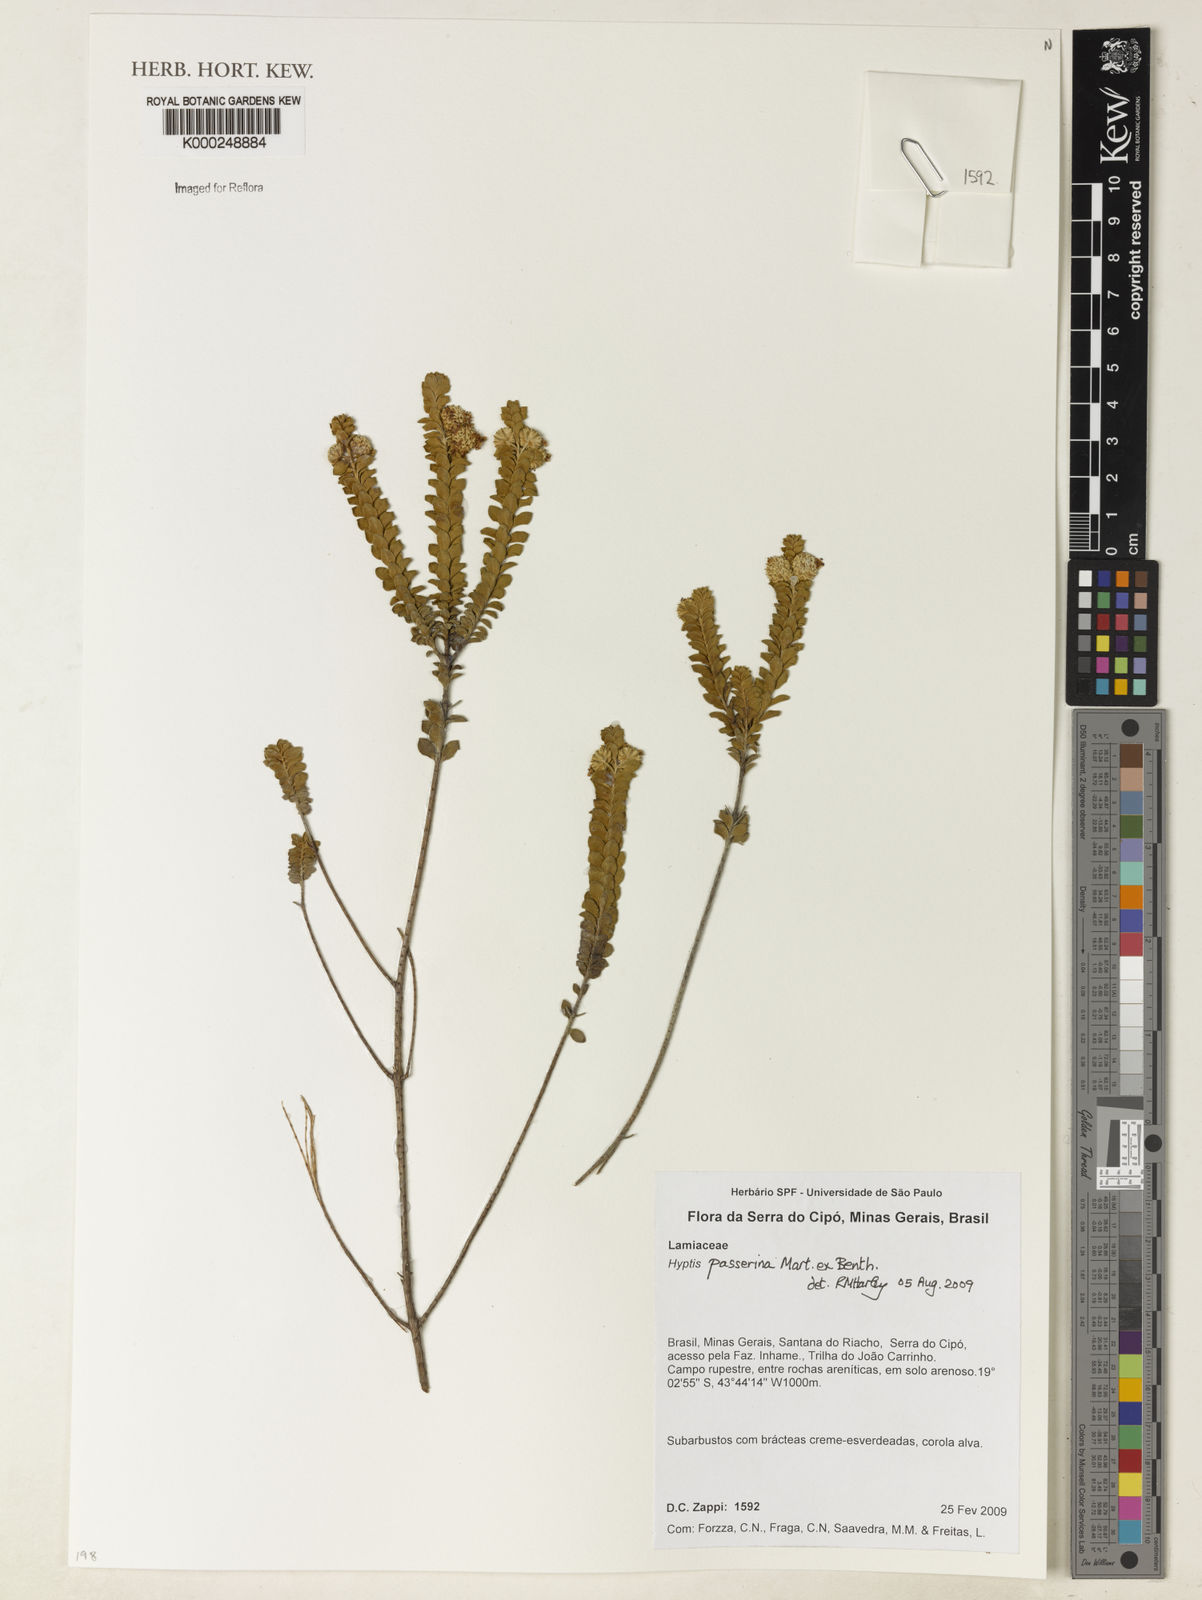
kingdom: Plantae
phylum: Tracheophyta
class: Magnoliopsida
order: Lamiales
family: Lamiaceae
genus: Hyptis
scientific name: Hyptis passerina
